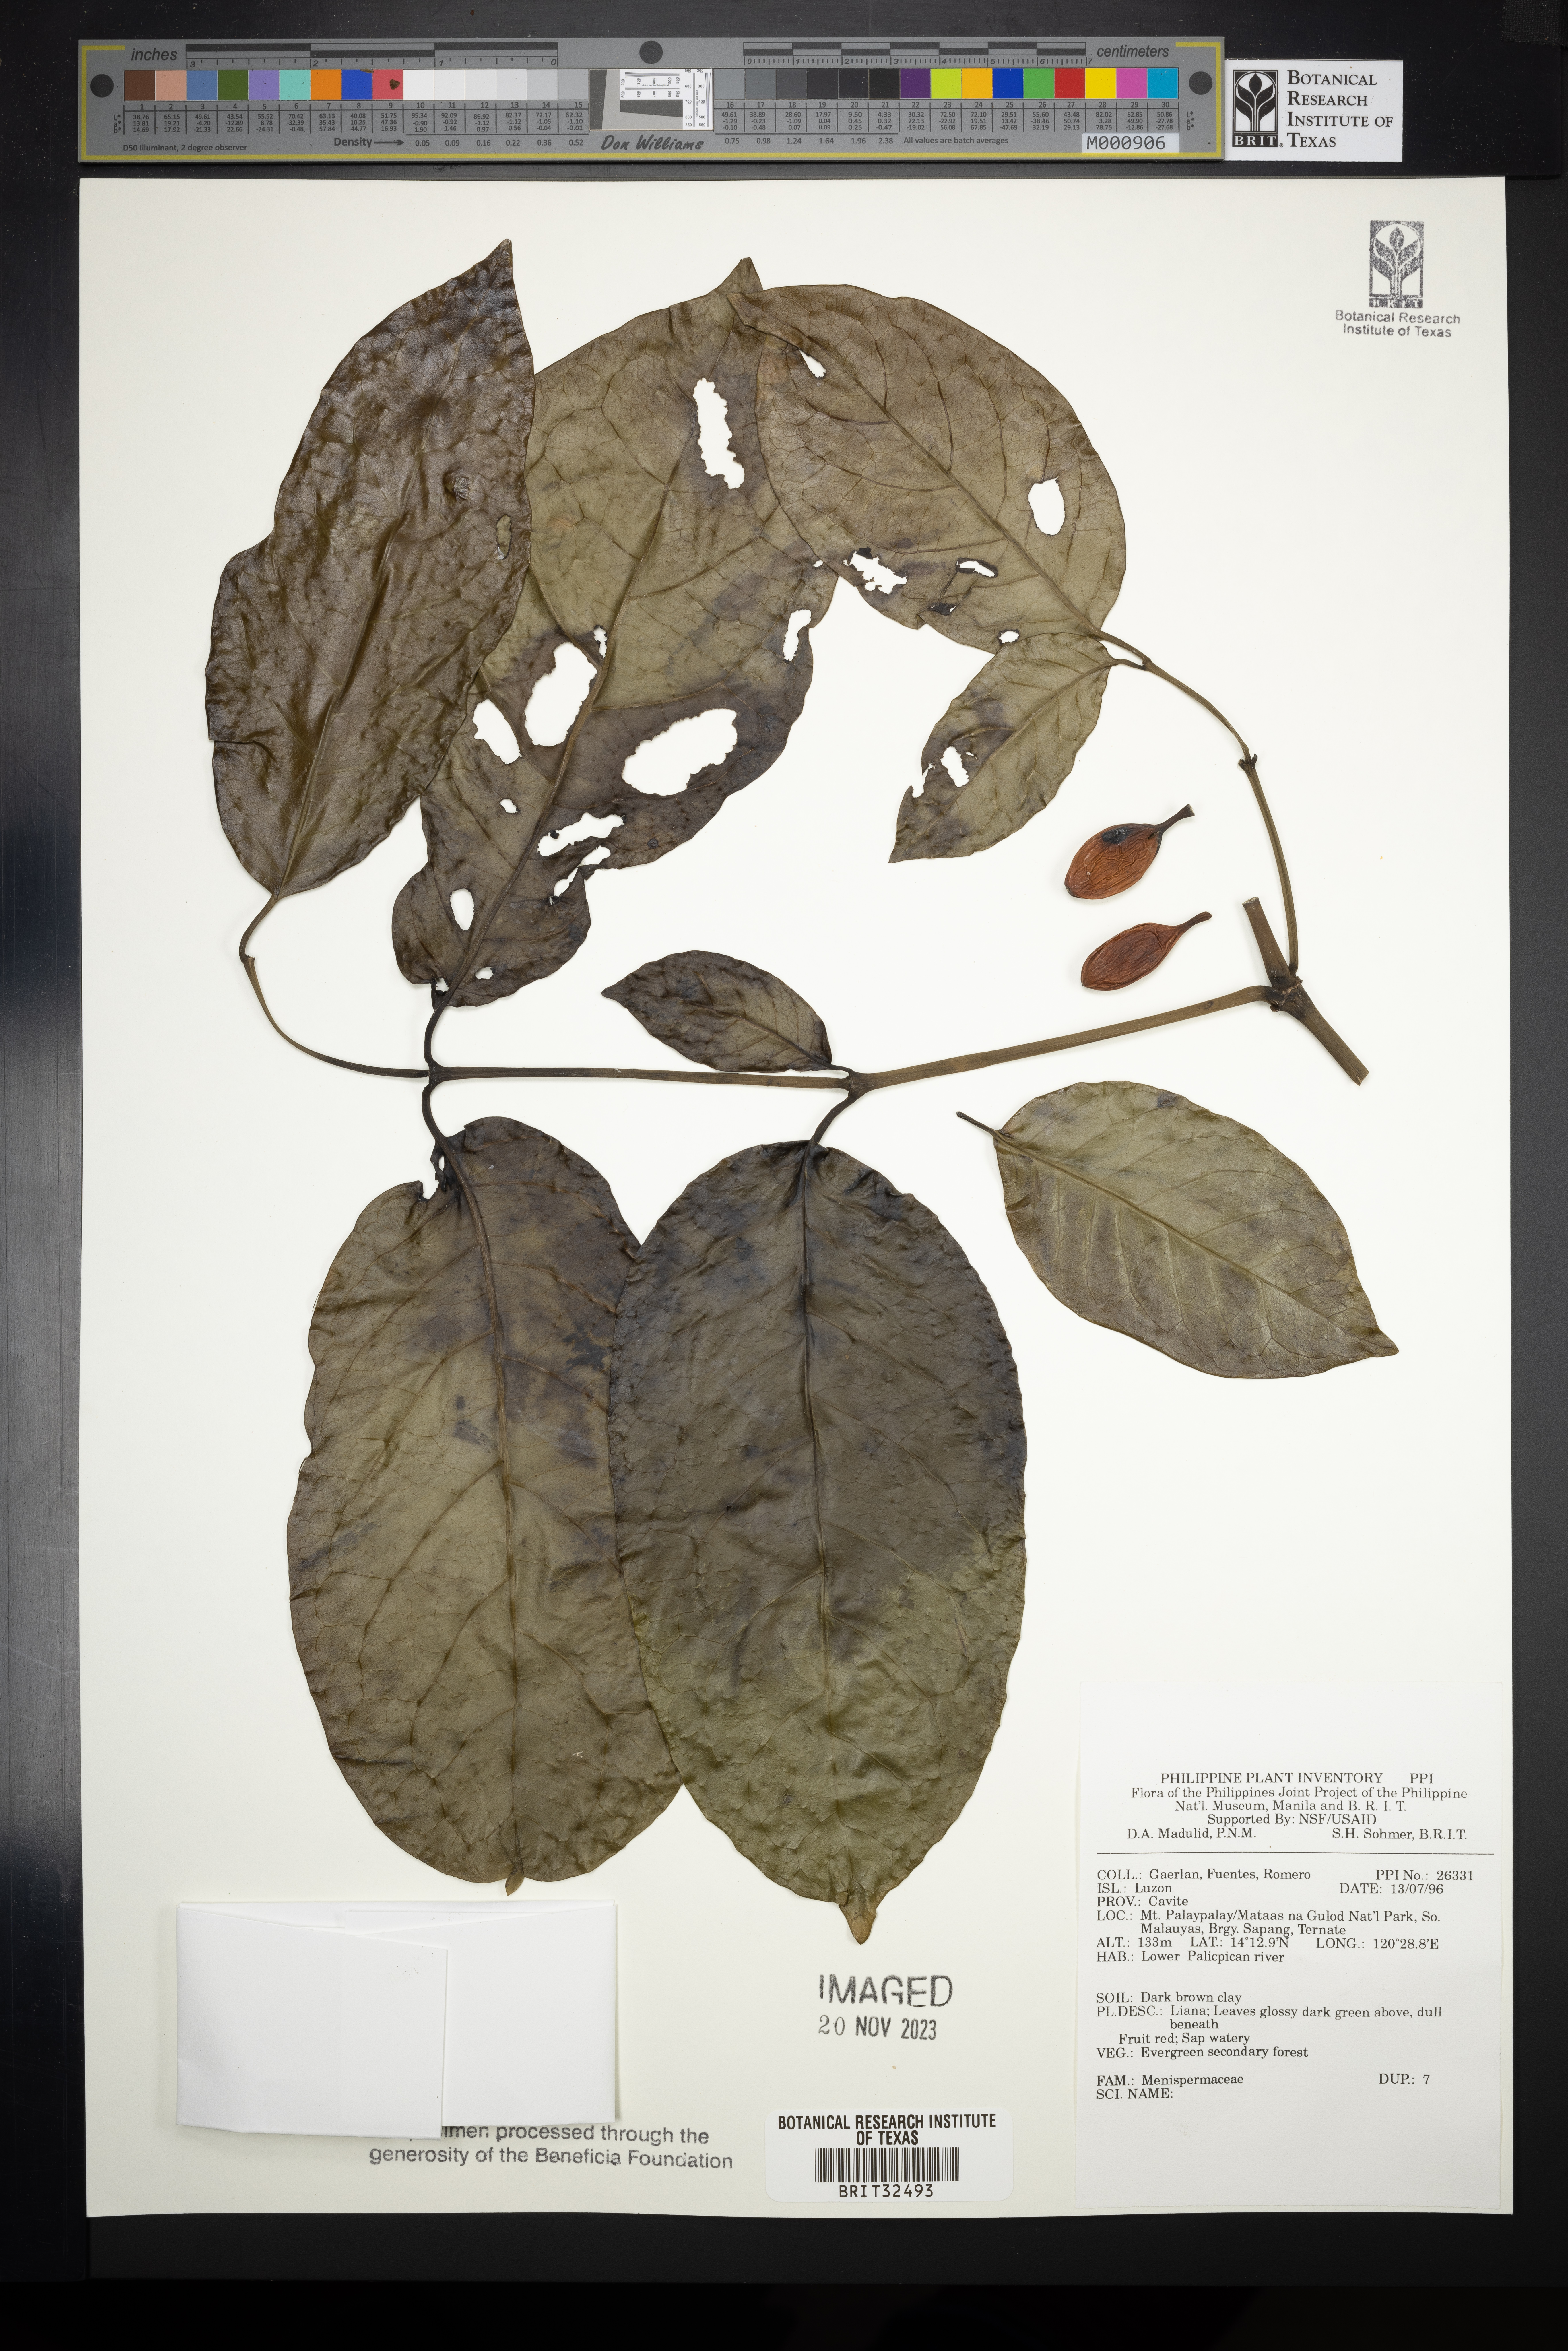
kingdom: Plantae
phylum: Tracheophyta
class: Magnoliopsida
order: Ranunculales
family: Menispermaceae
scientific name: Menispermaceae
